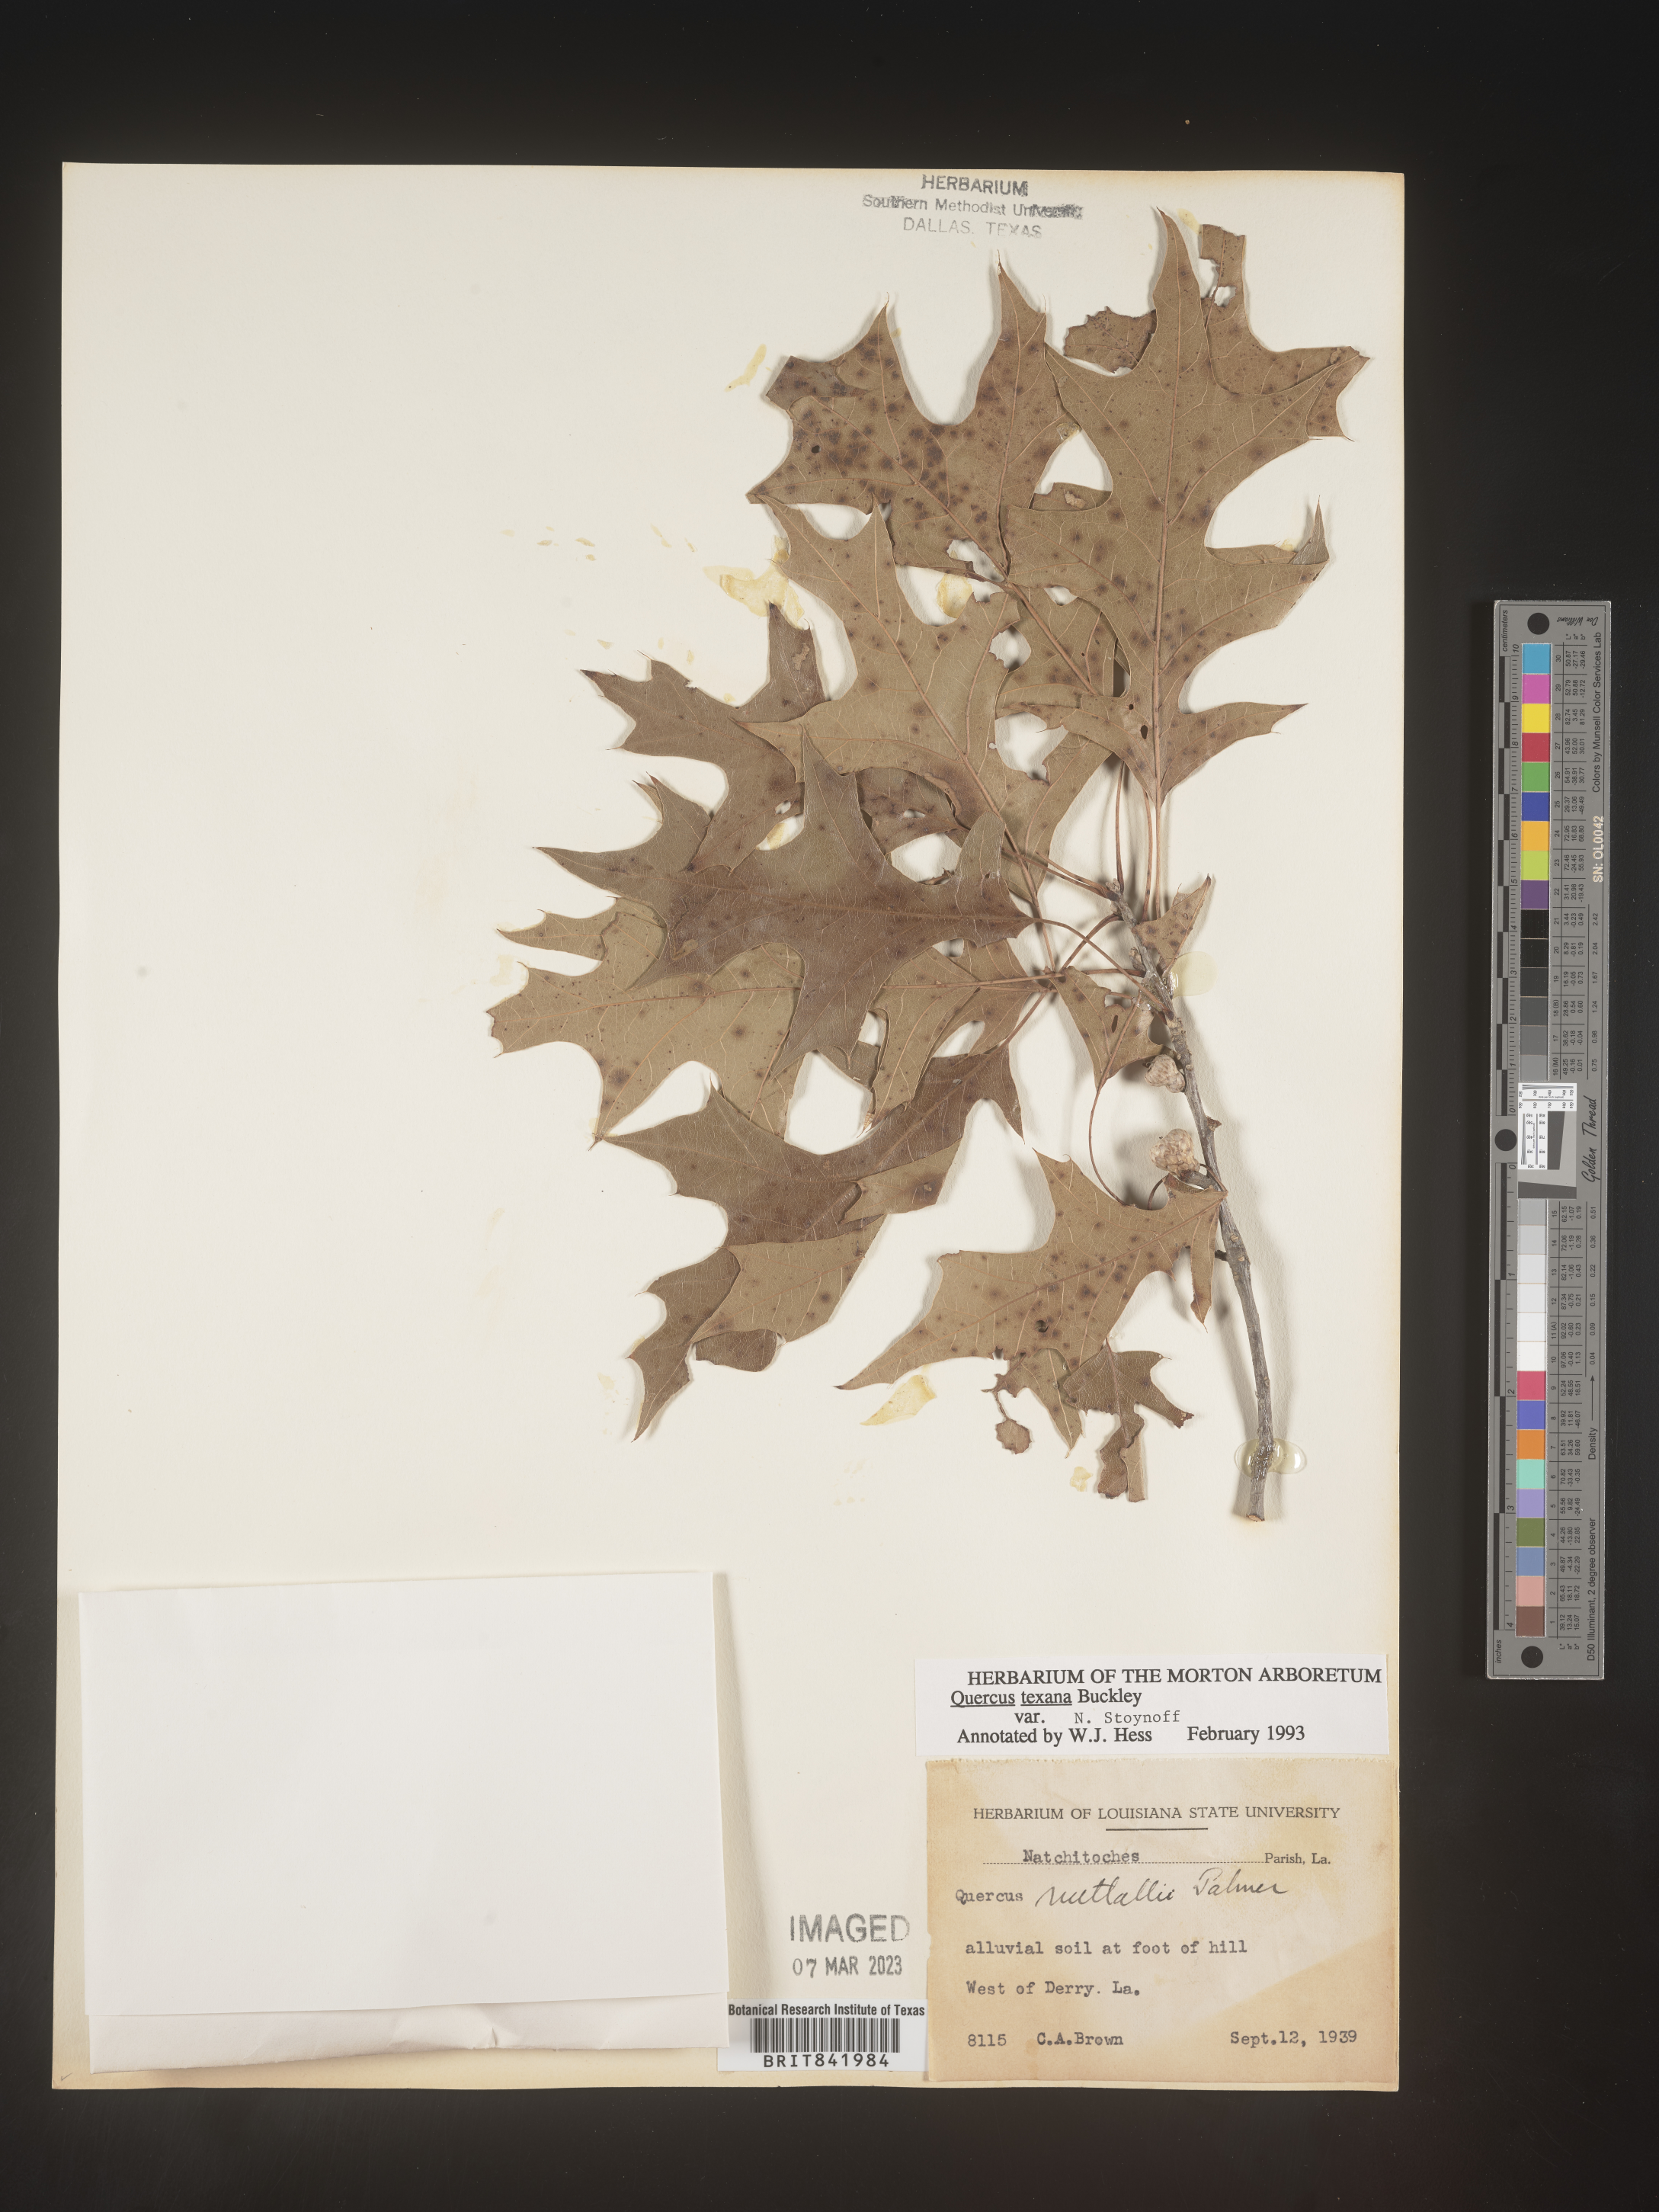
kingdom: Plantae
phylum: Tracheophyta
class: Magnoliopsida
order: Fagales
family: Fagaceae
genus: Quercus
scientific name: Quercus texana
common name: Nuttall oak
